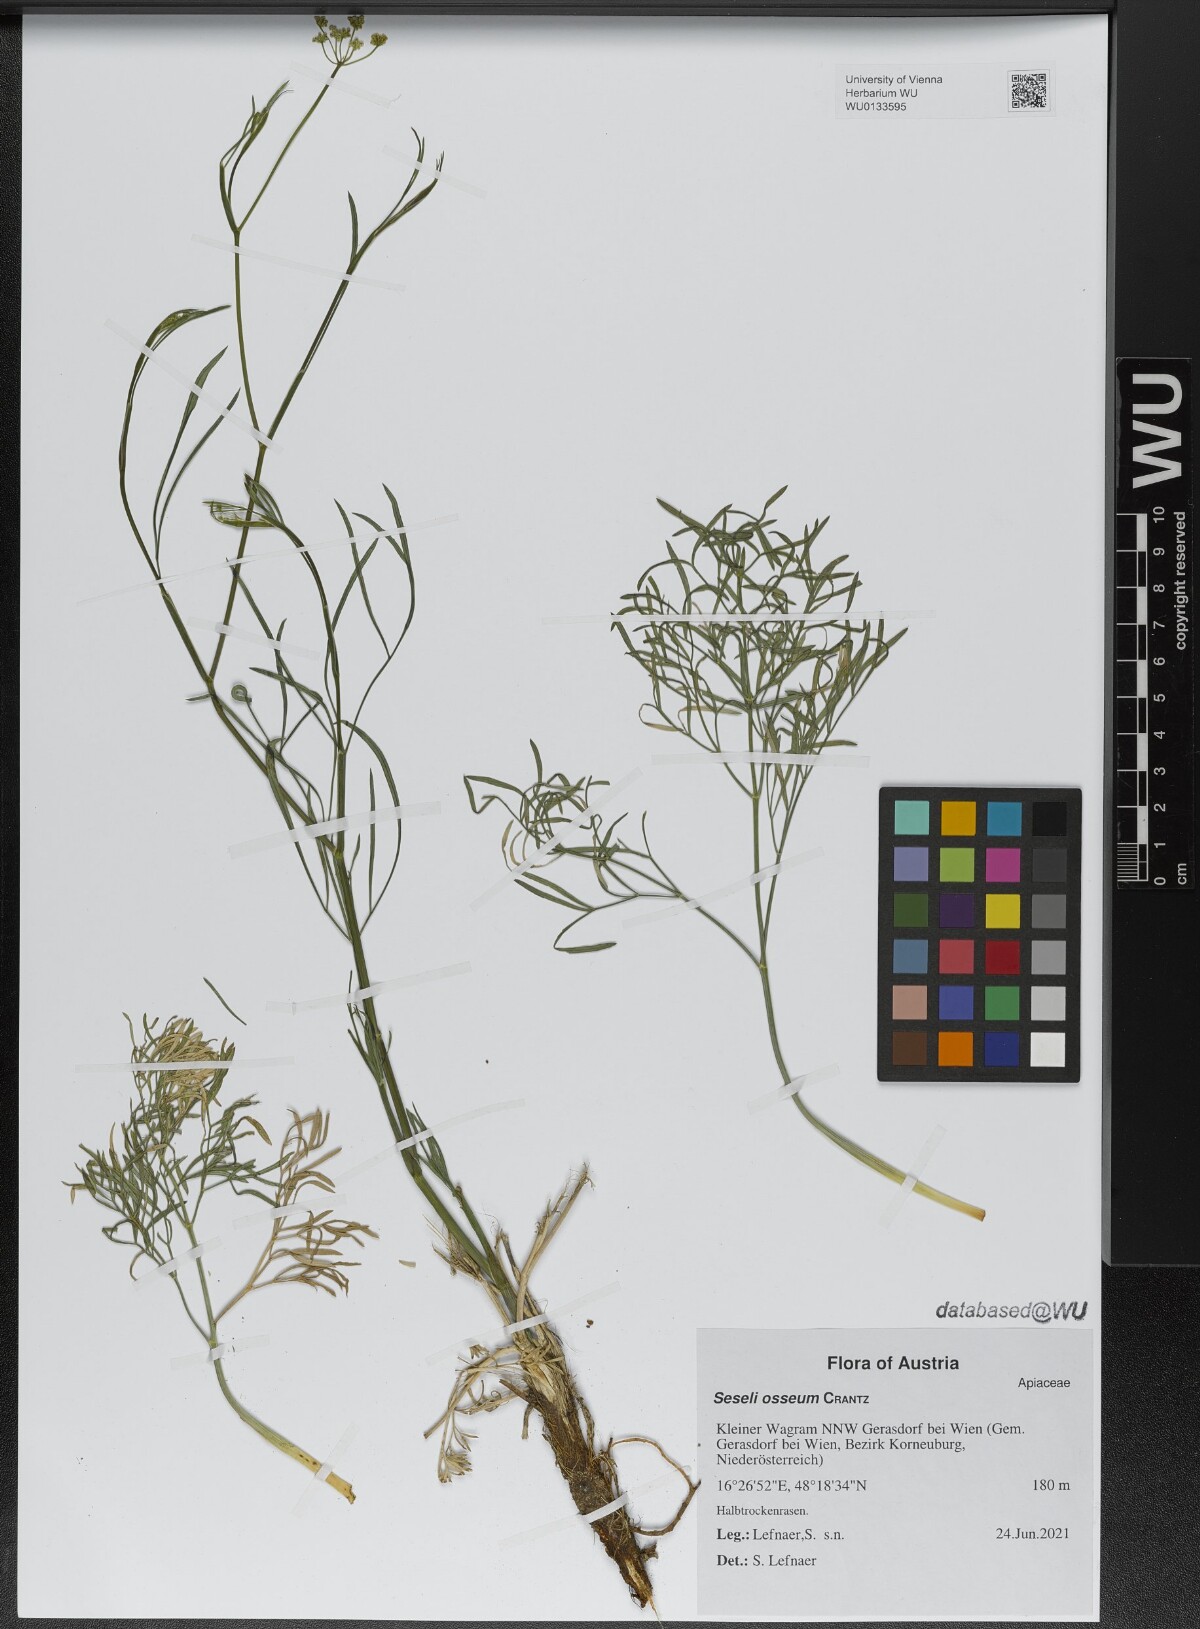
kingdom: Plantae
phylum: Tracheophyta
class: Magnoliopsida
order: Apiales
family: Apiaceae
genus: Seseli
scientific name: Seseli osseum
